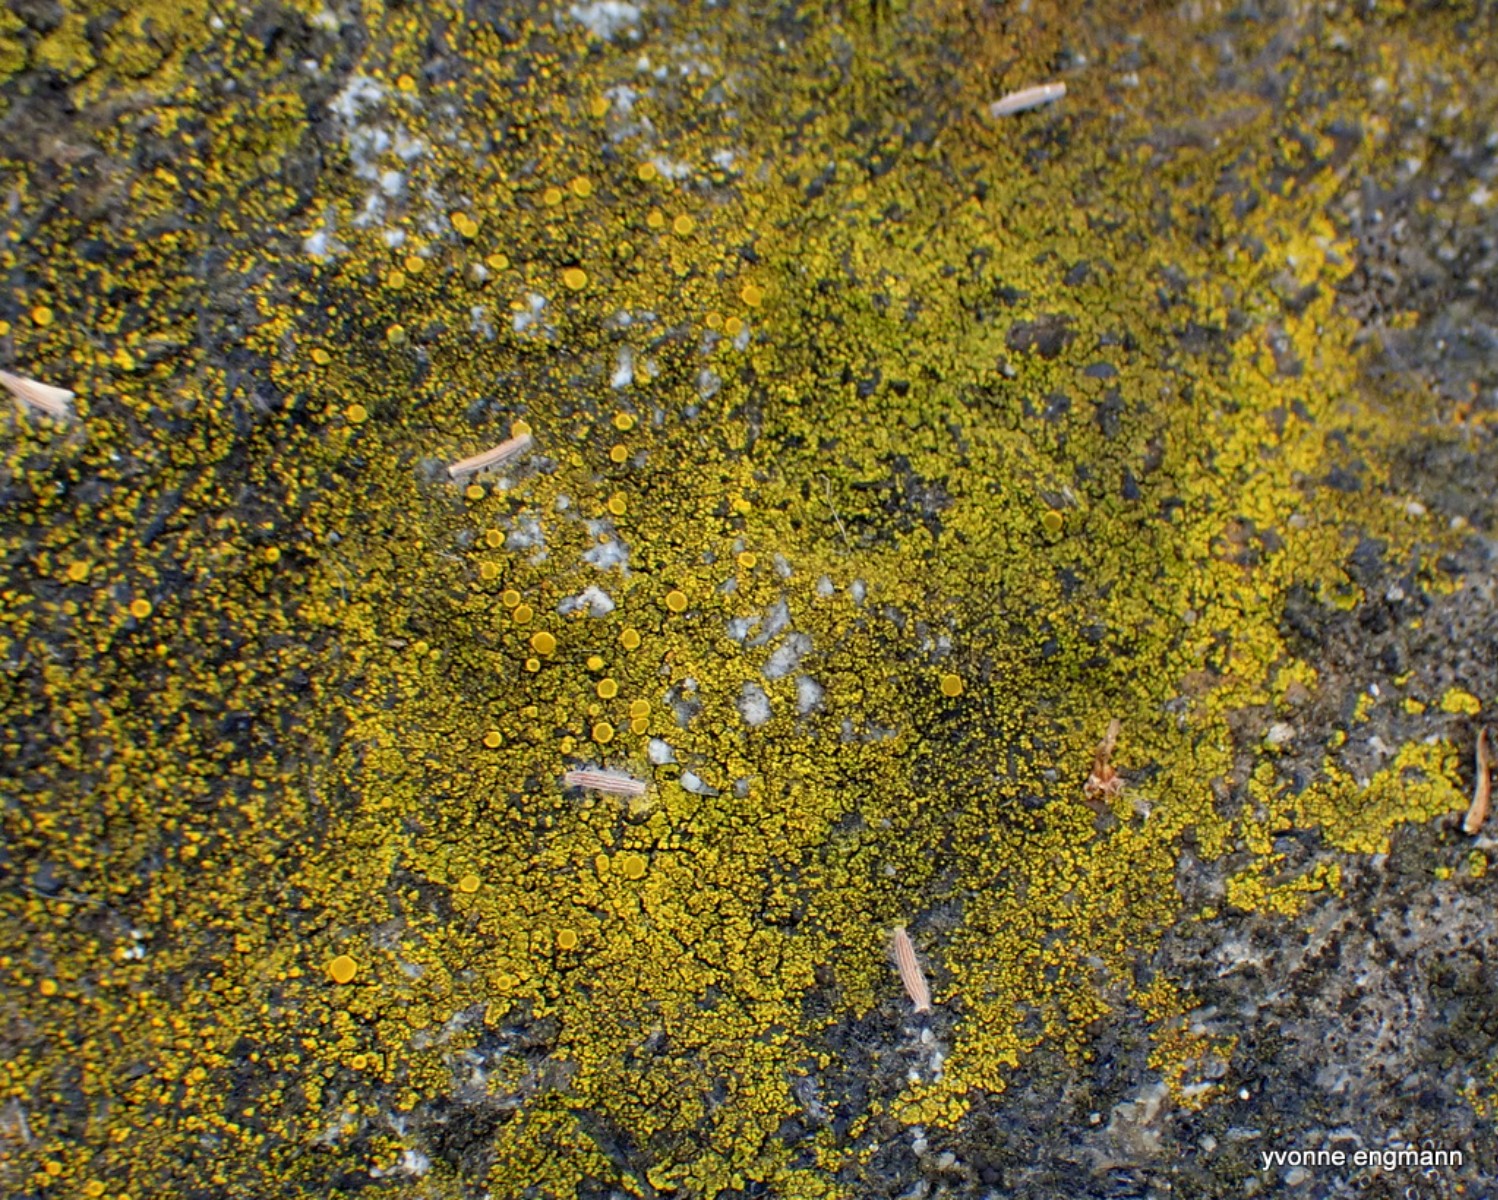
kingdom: Fungi
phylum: Ascomycota
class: Candelariomycetes
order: Candelariales
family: Candelariaceae
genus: Candelariella
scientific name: Candelariella vitellina
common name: almindelig æggeblommelav
